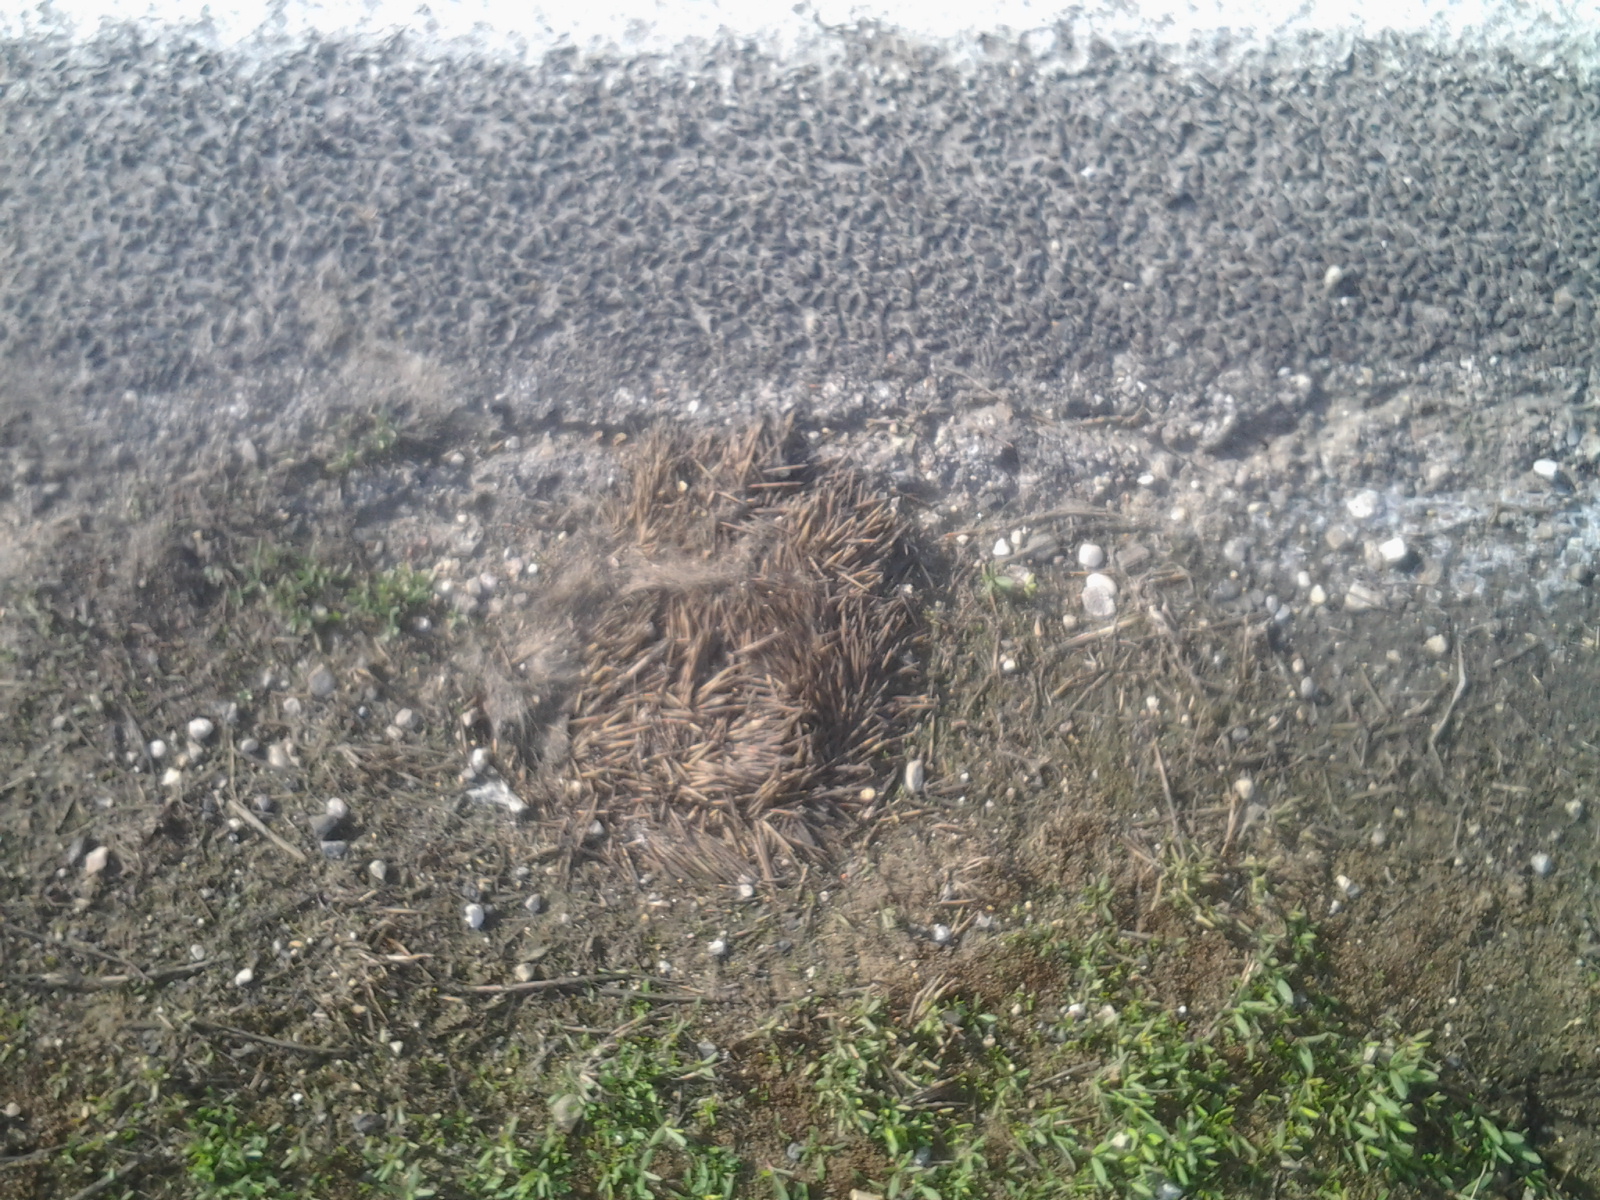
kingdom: Animalia
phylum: Chordata
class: Mammalia
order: Erinaceomorpha
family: Erinaceidae
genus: Erinaceus
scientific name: Erinaceus
